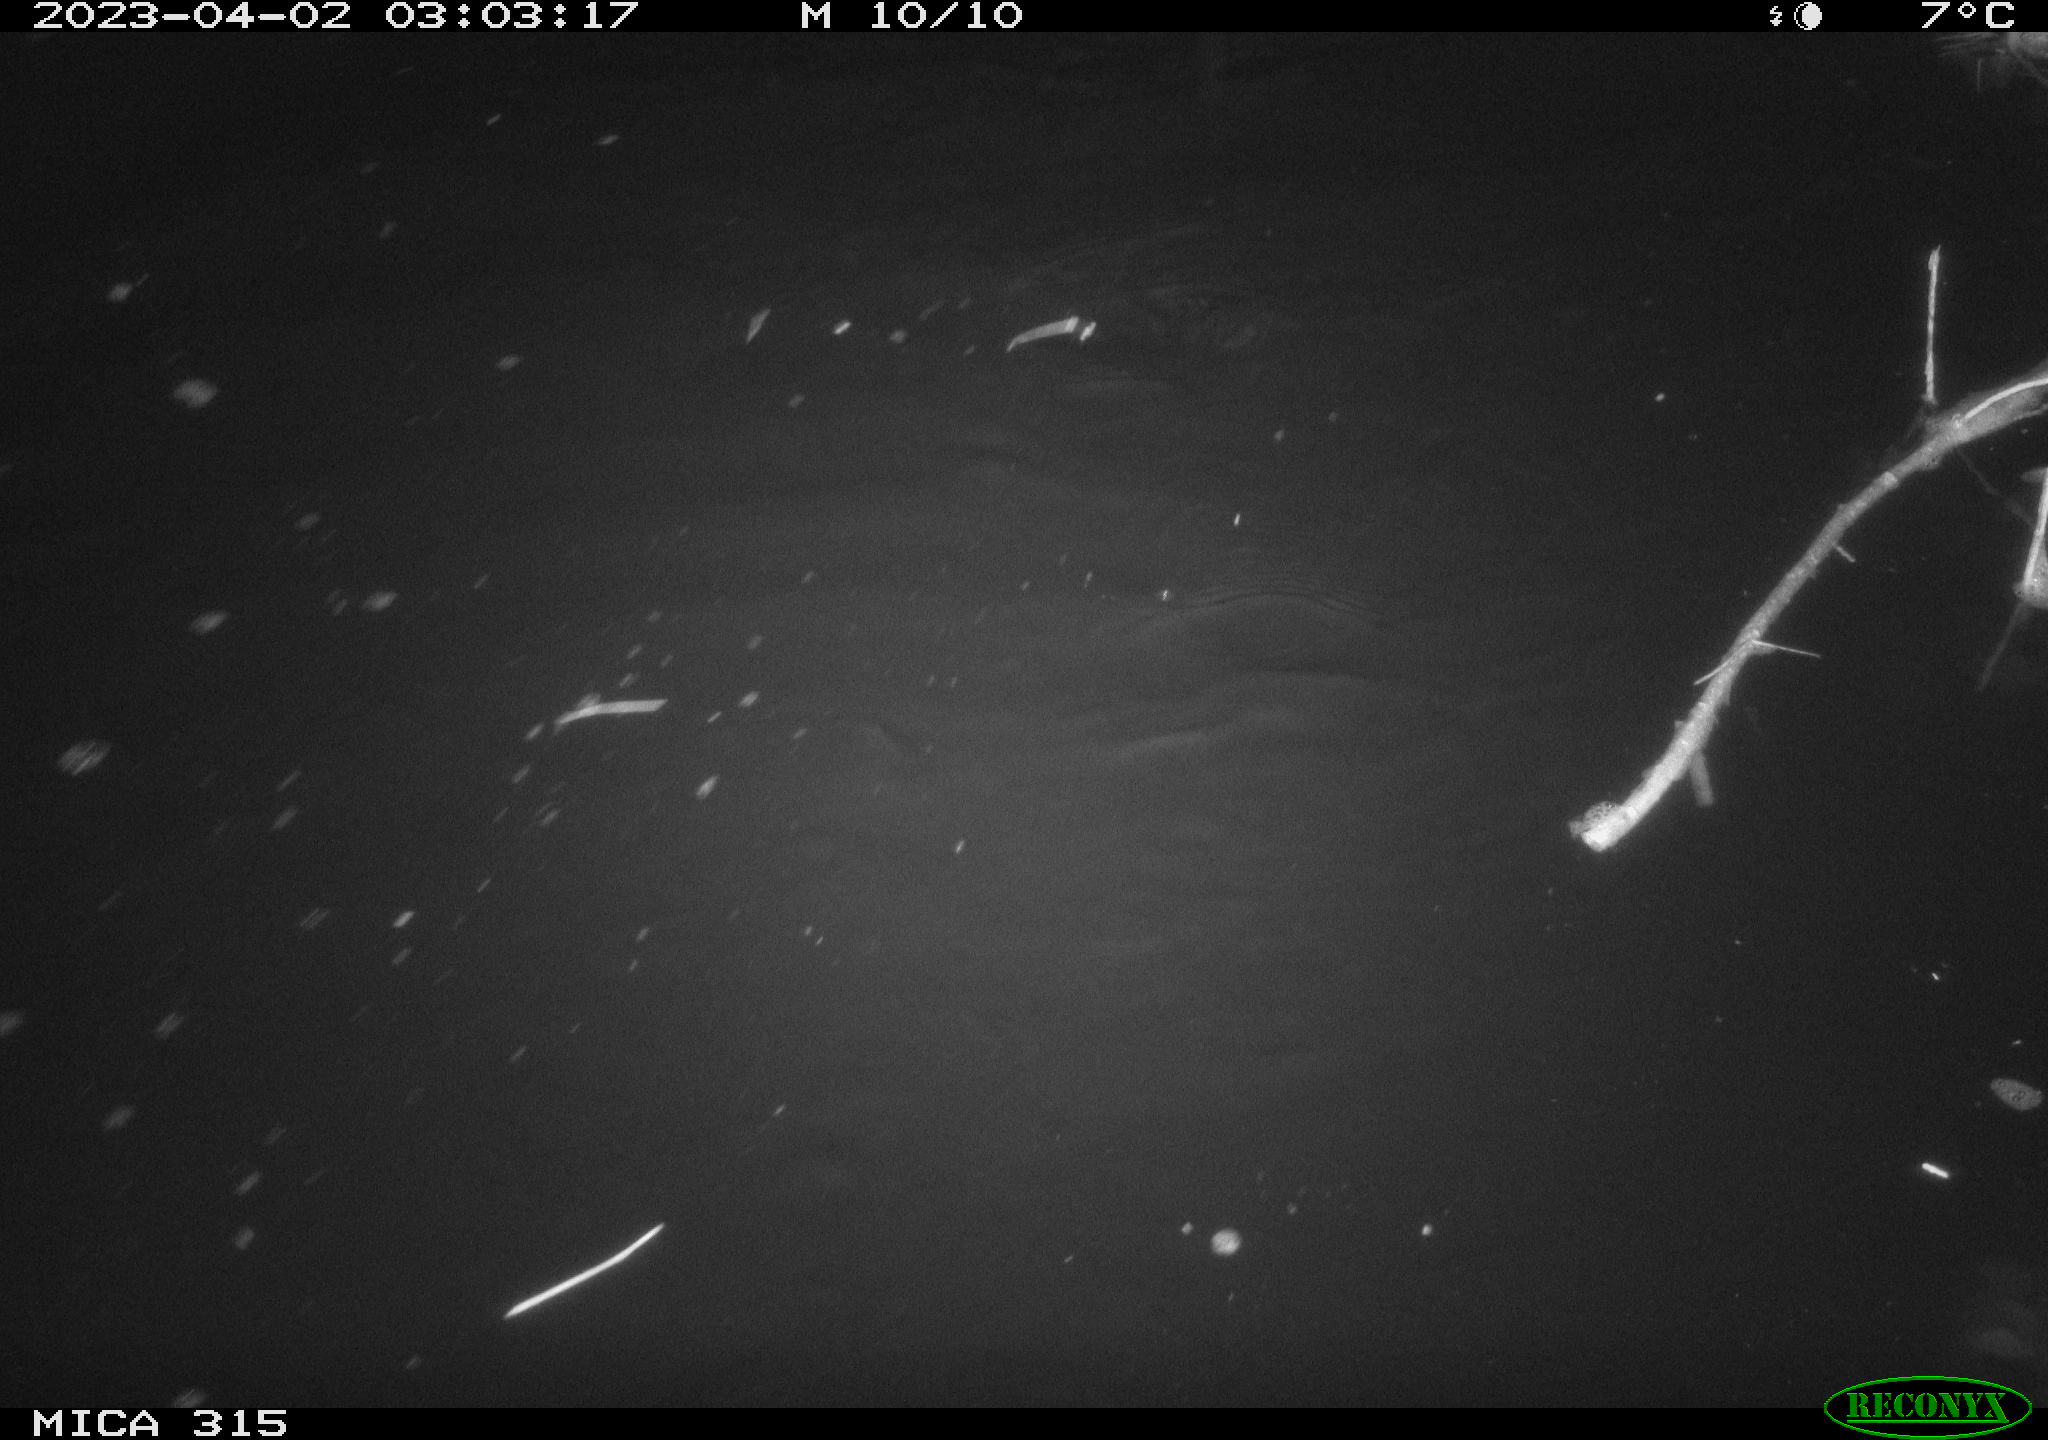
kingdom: Animalia
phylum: Chordata
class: Aves
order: Anseriformes
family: Anatidae
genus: Anas
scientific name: Anas
